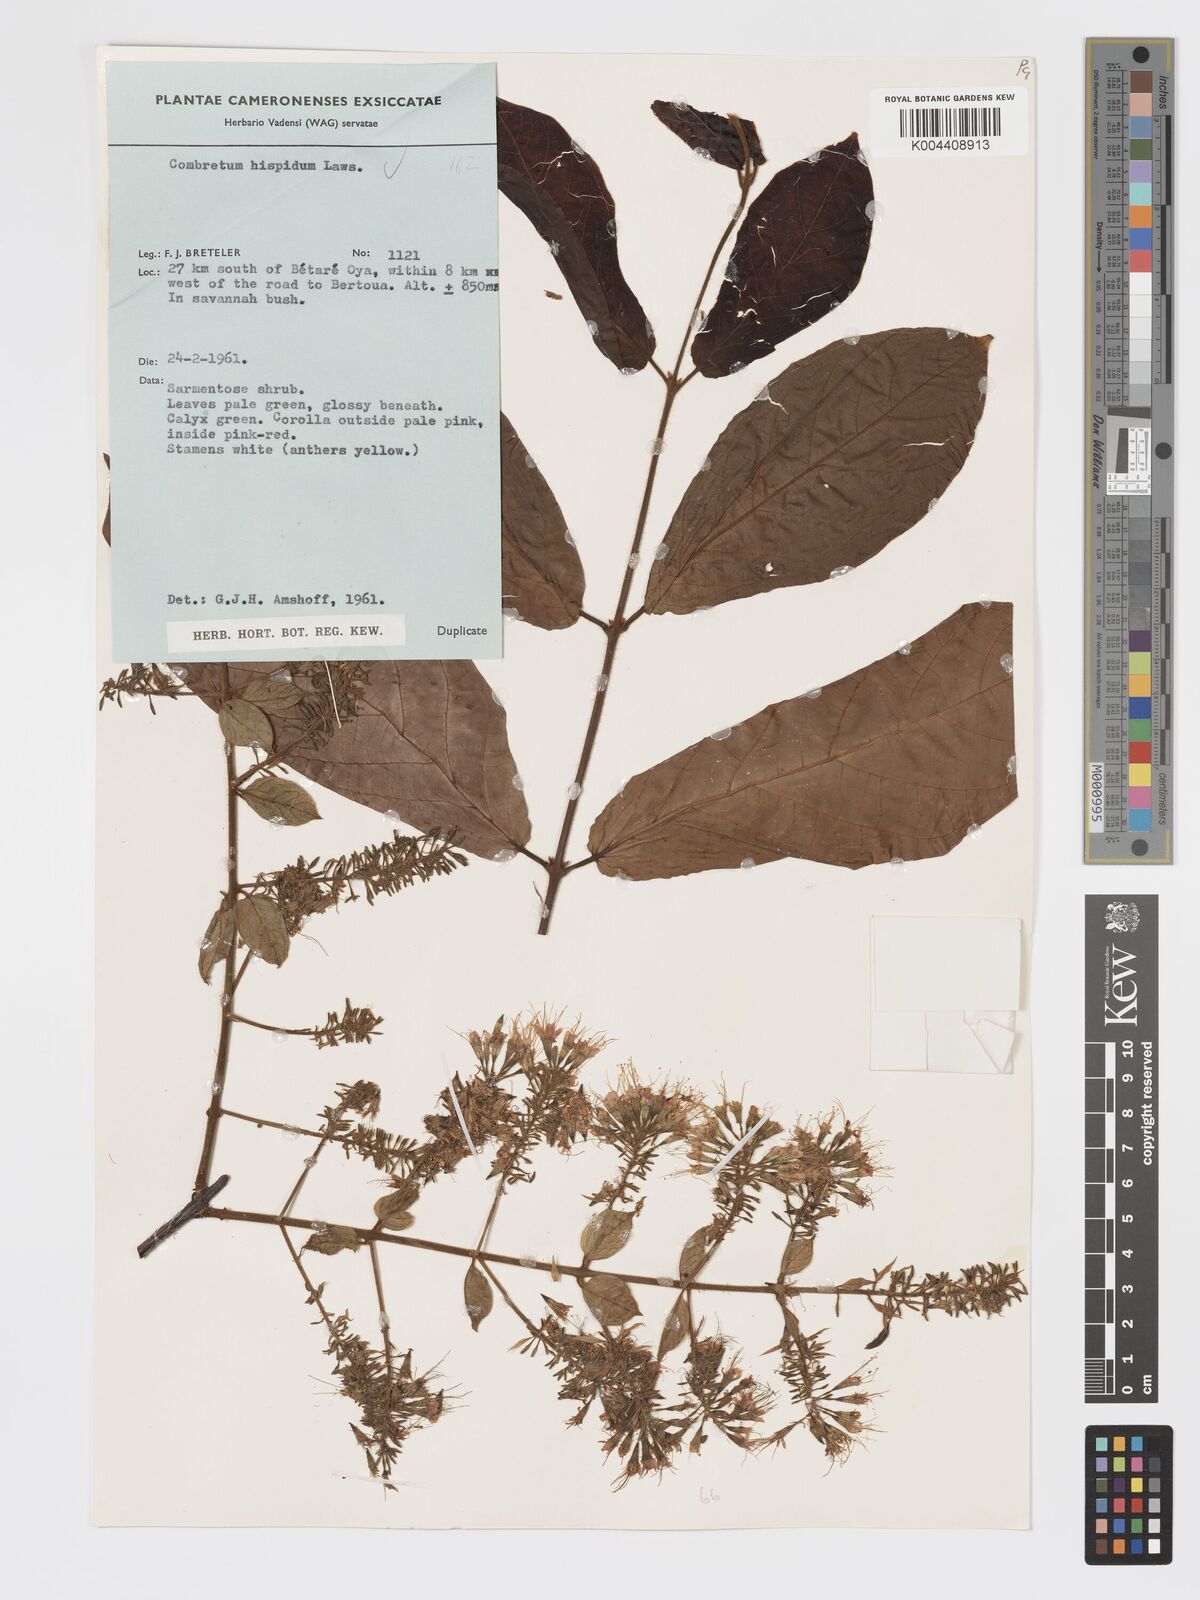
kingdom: Plantae
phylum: Tracheophyta
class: Magnoliopsida
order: Myrtales
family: Combretaceae
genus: Combretum
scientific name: Combretum
